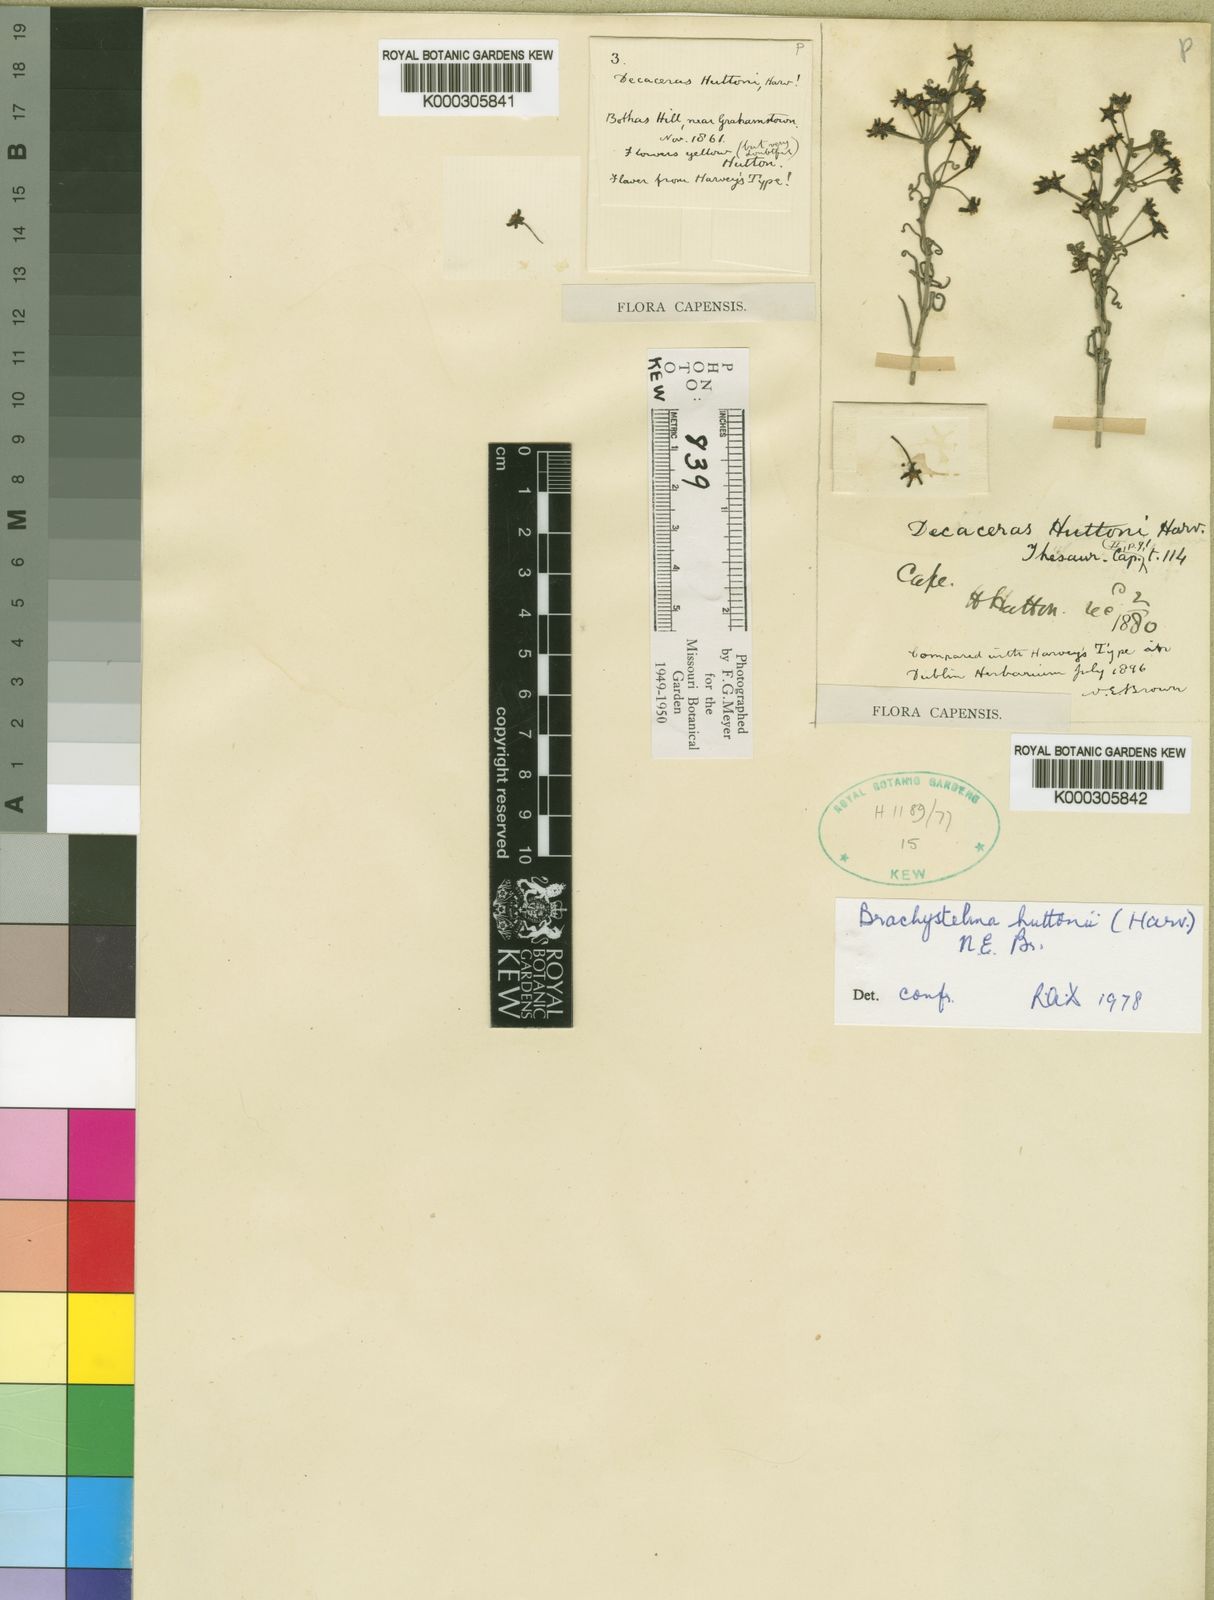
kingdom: Plantae
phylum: Tracheophyta
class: Magnoliopsida
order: Gentianales
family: Apocynaceae
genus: Ceropegia
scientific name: Ceropegia huttonii
